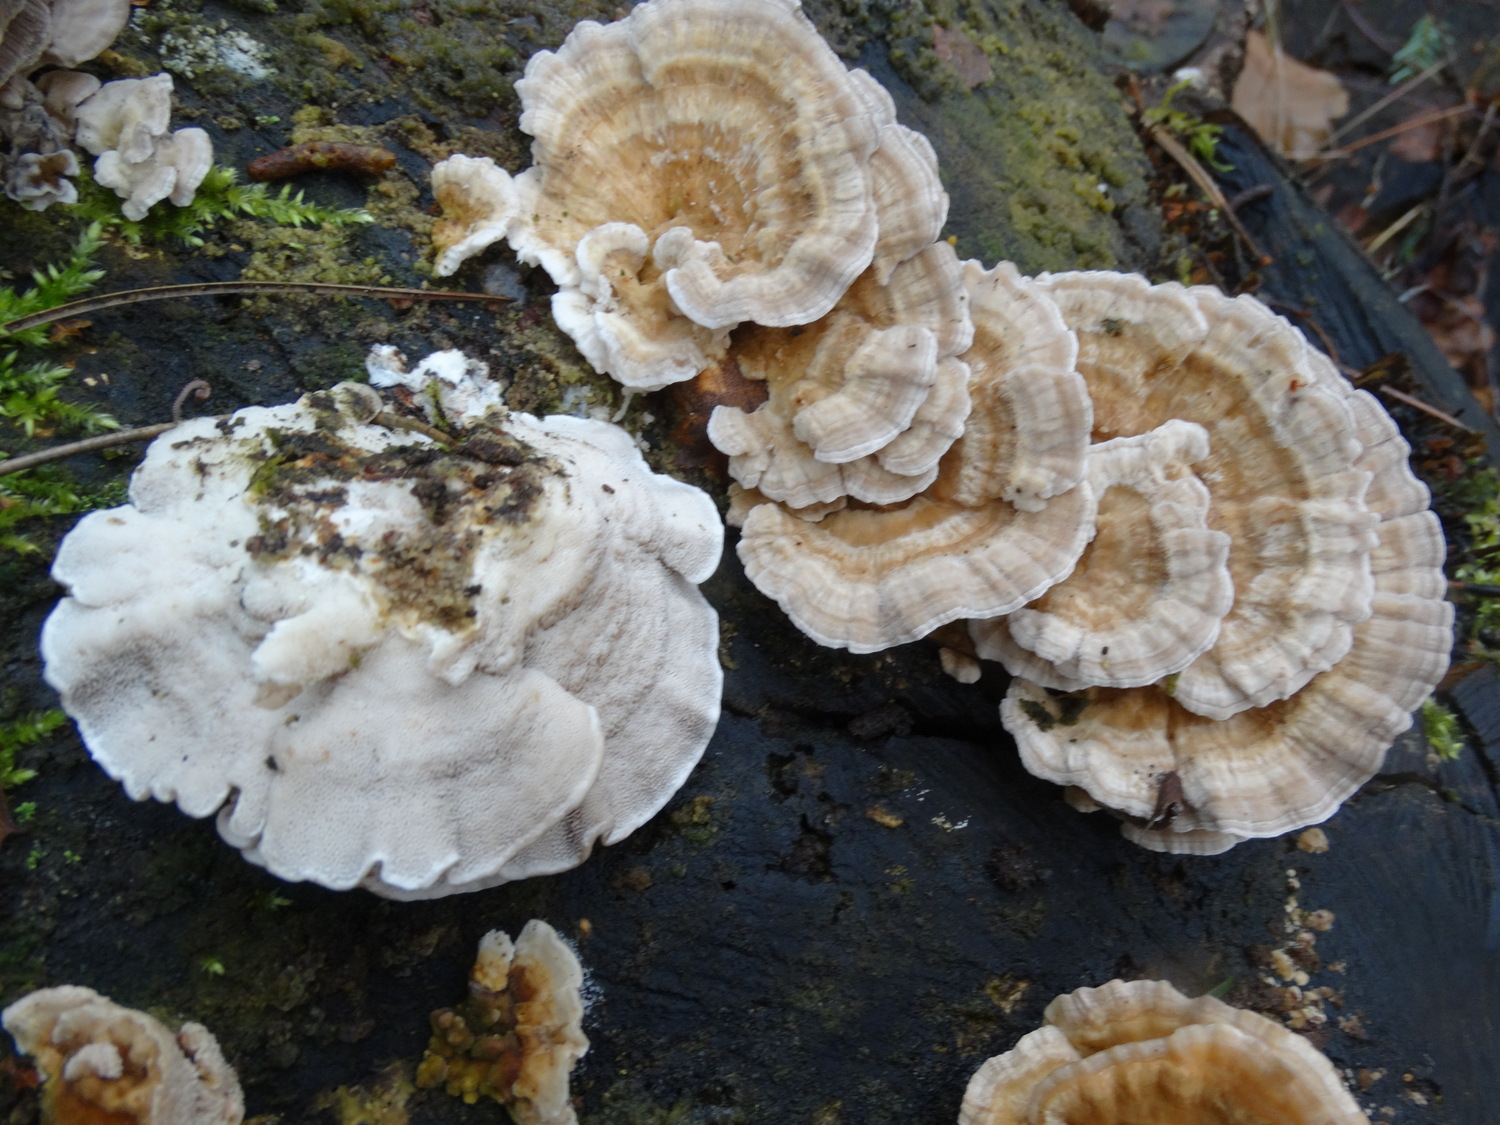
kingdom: Fungi
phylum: Basidiomycota
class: Agaricomycetes
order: Polyporales
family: Polyporaceae
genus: Trametes
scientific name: Trametes ochracea
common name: bæltet læderporesvamp
